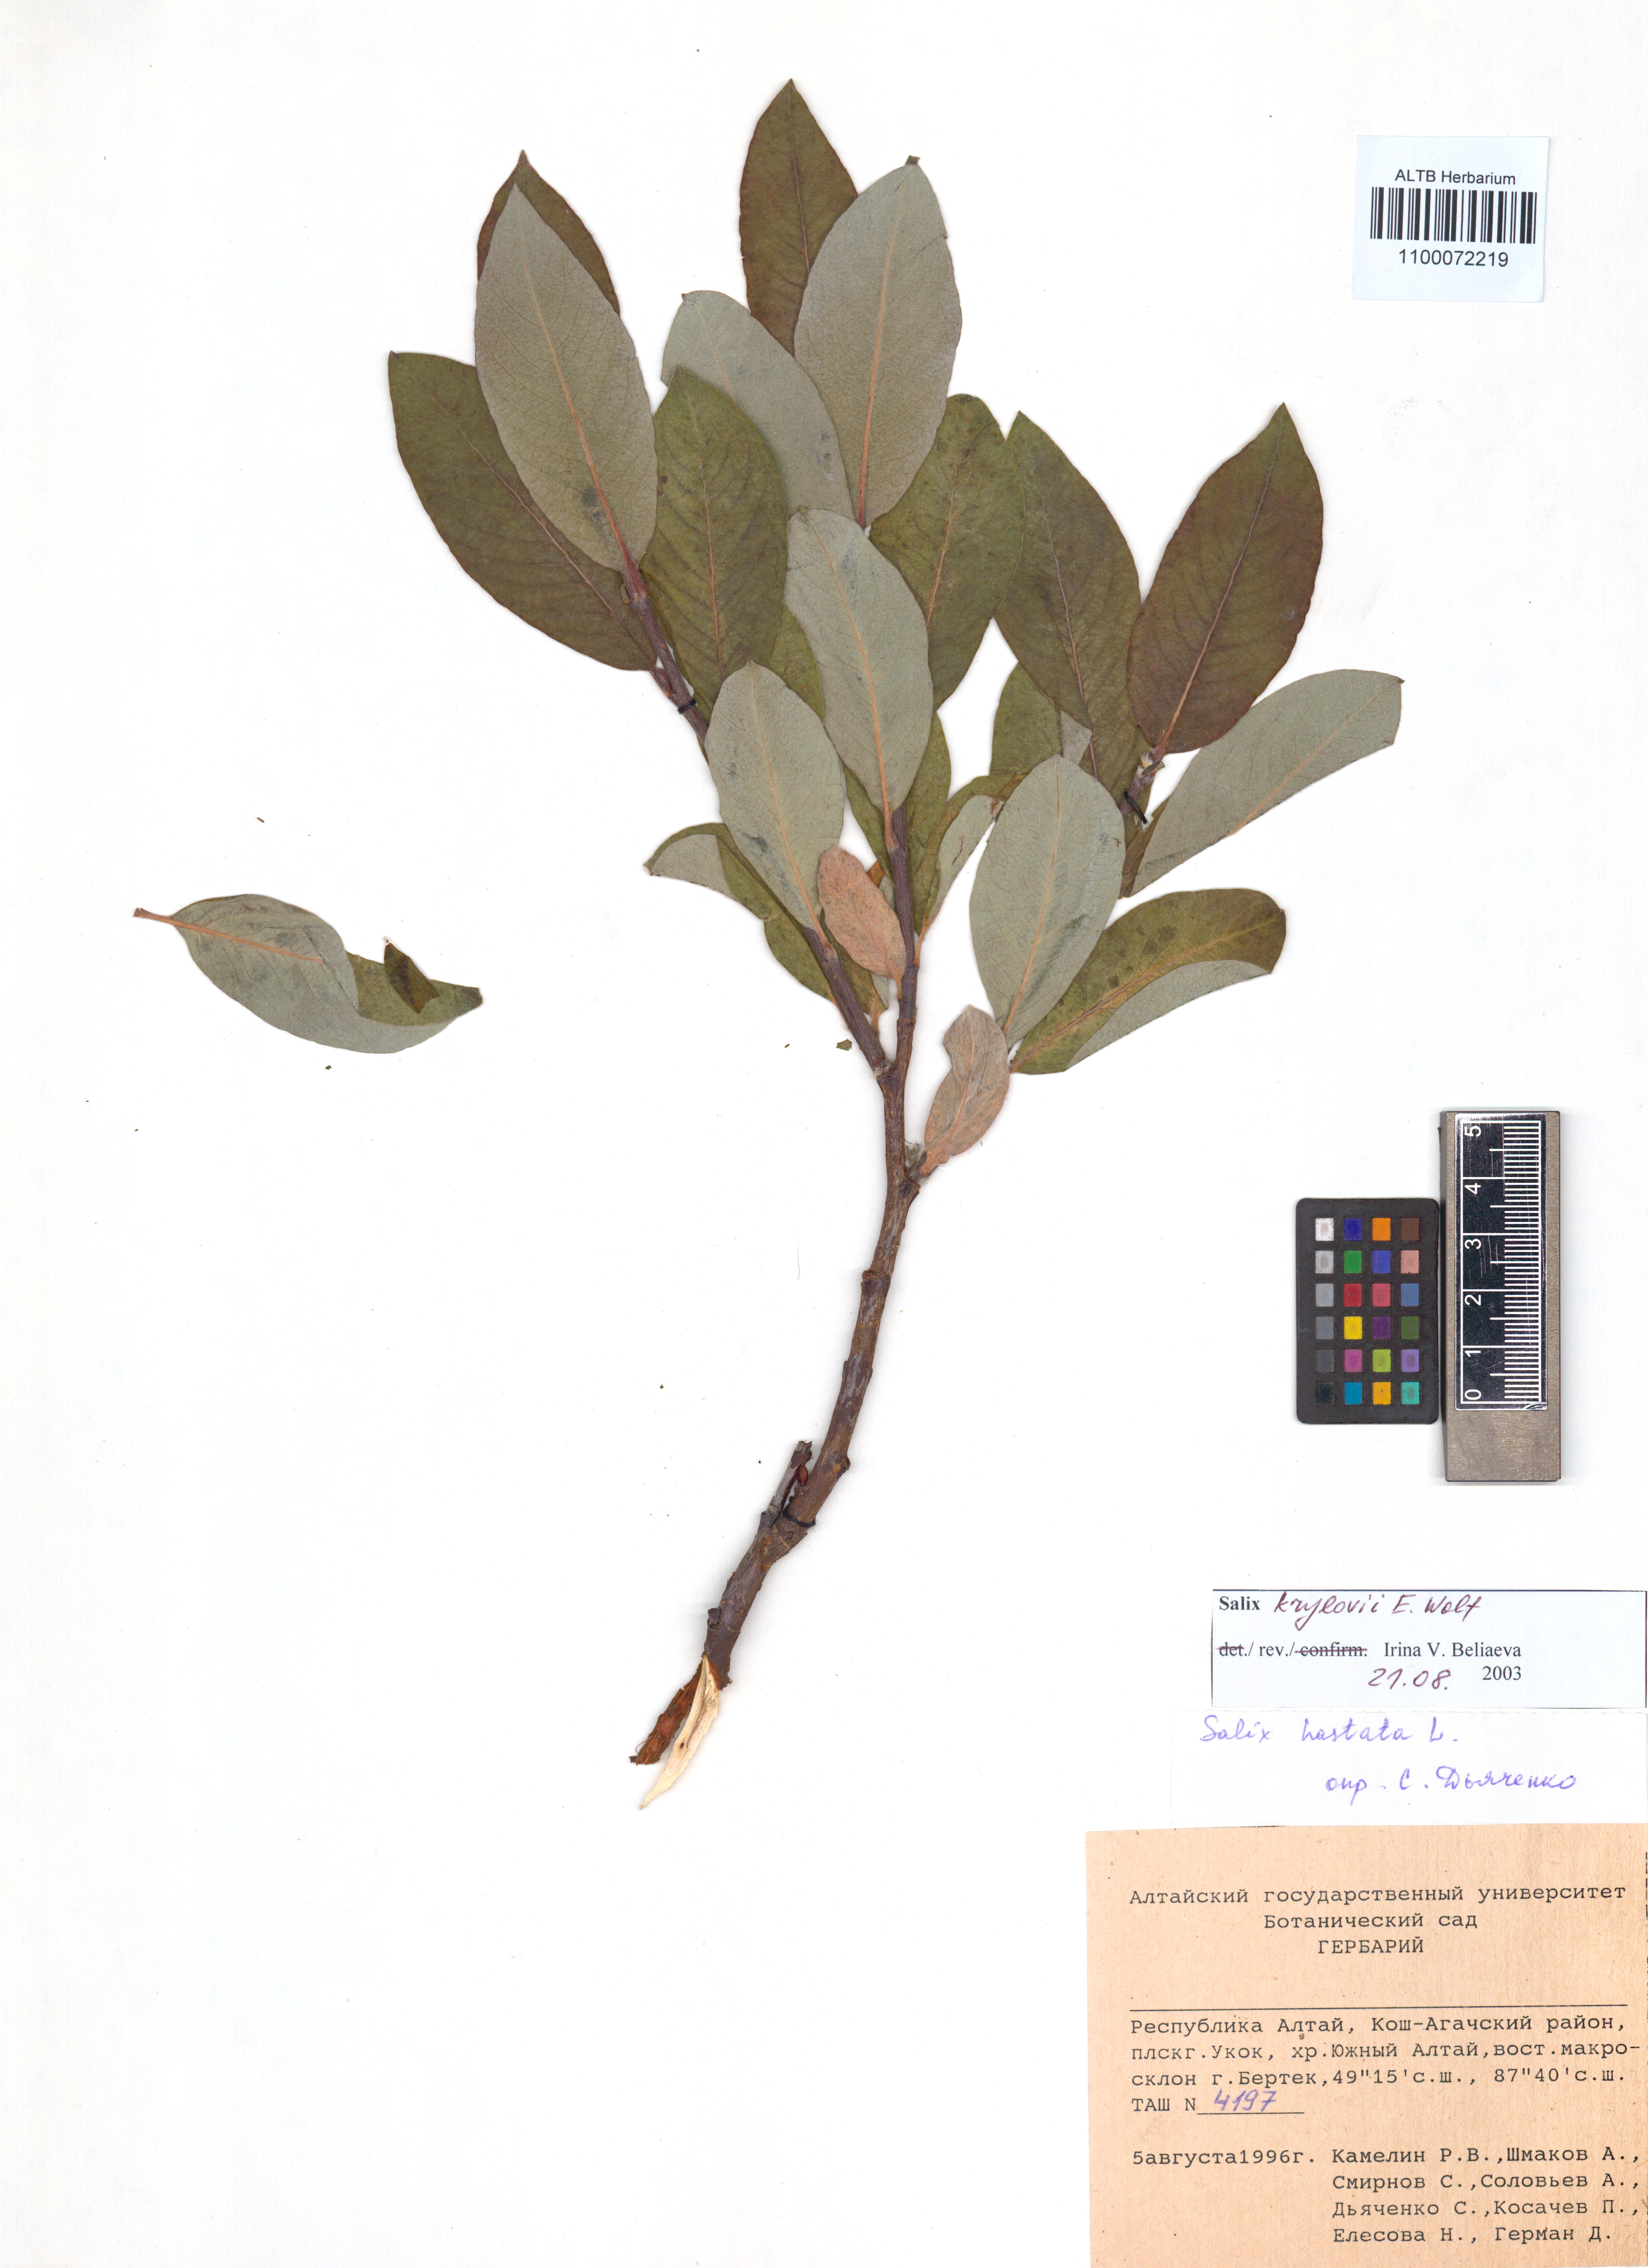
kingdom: Plantae
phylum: Tracheophyta
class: Magnoliopsida
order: Malpighiales
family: Salicaceae
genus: Salix
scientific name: Salix krylovii
